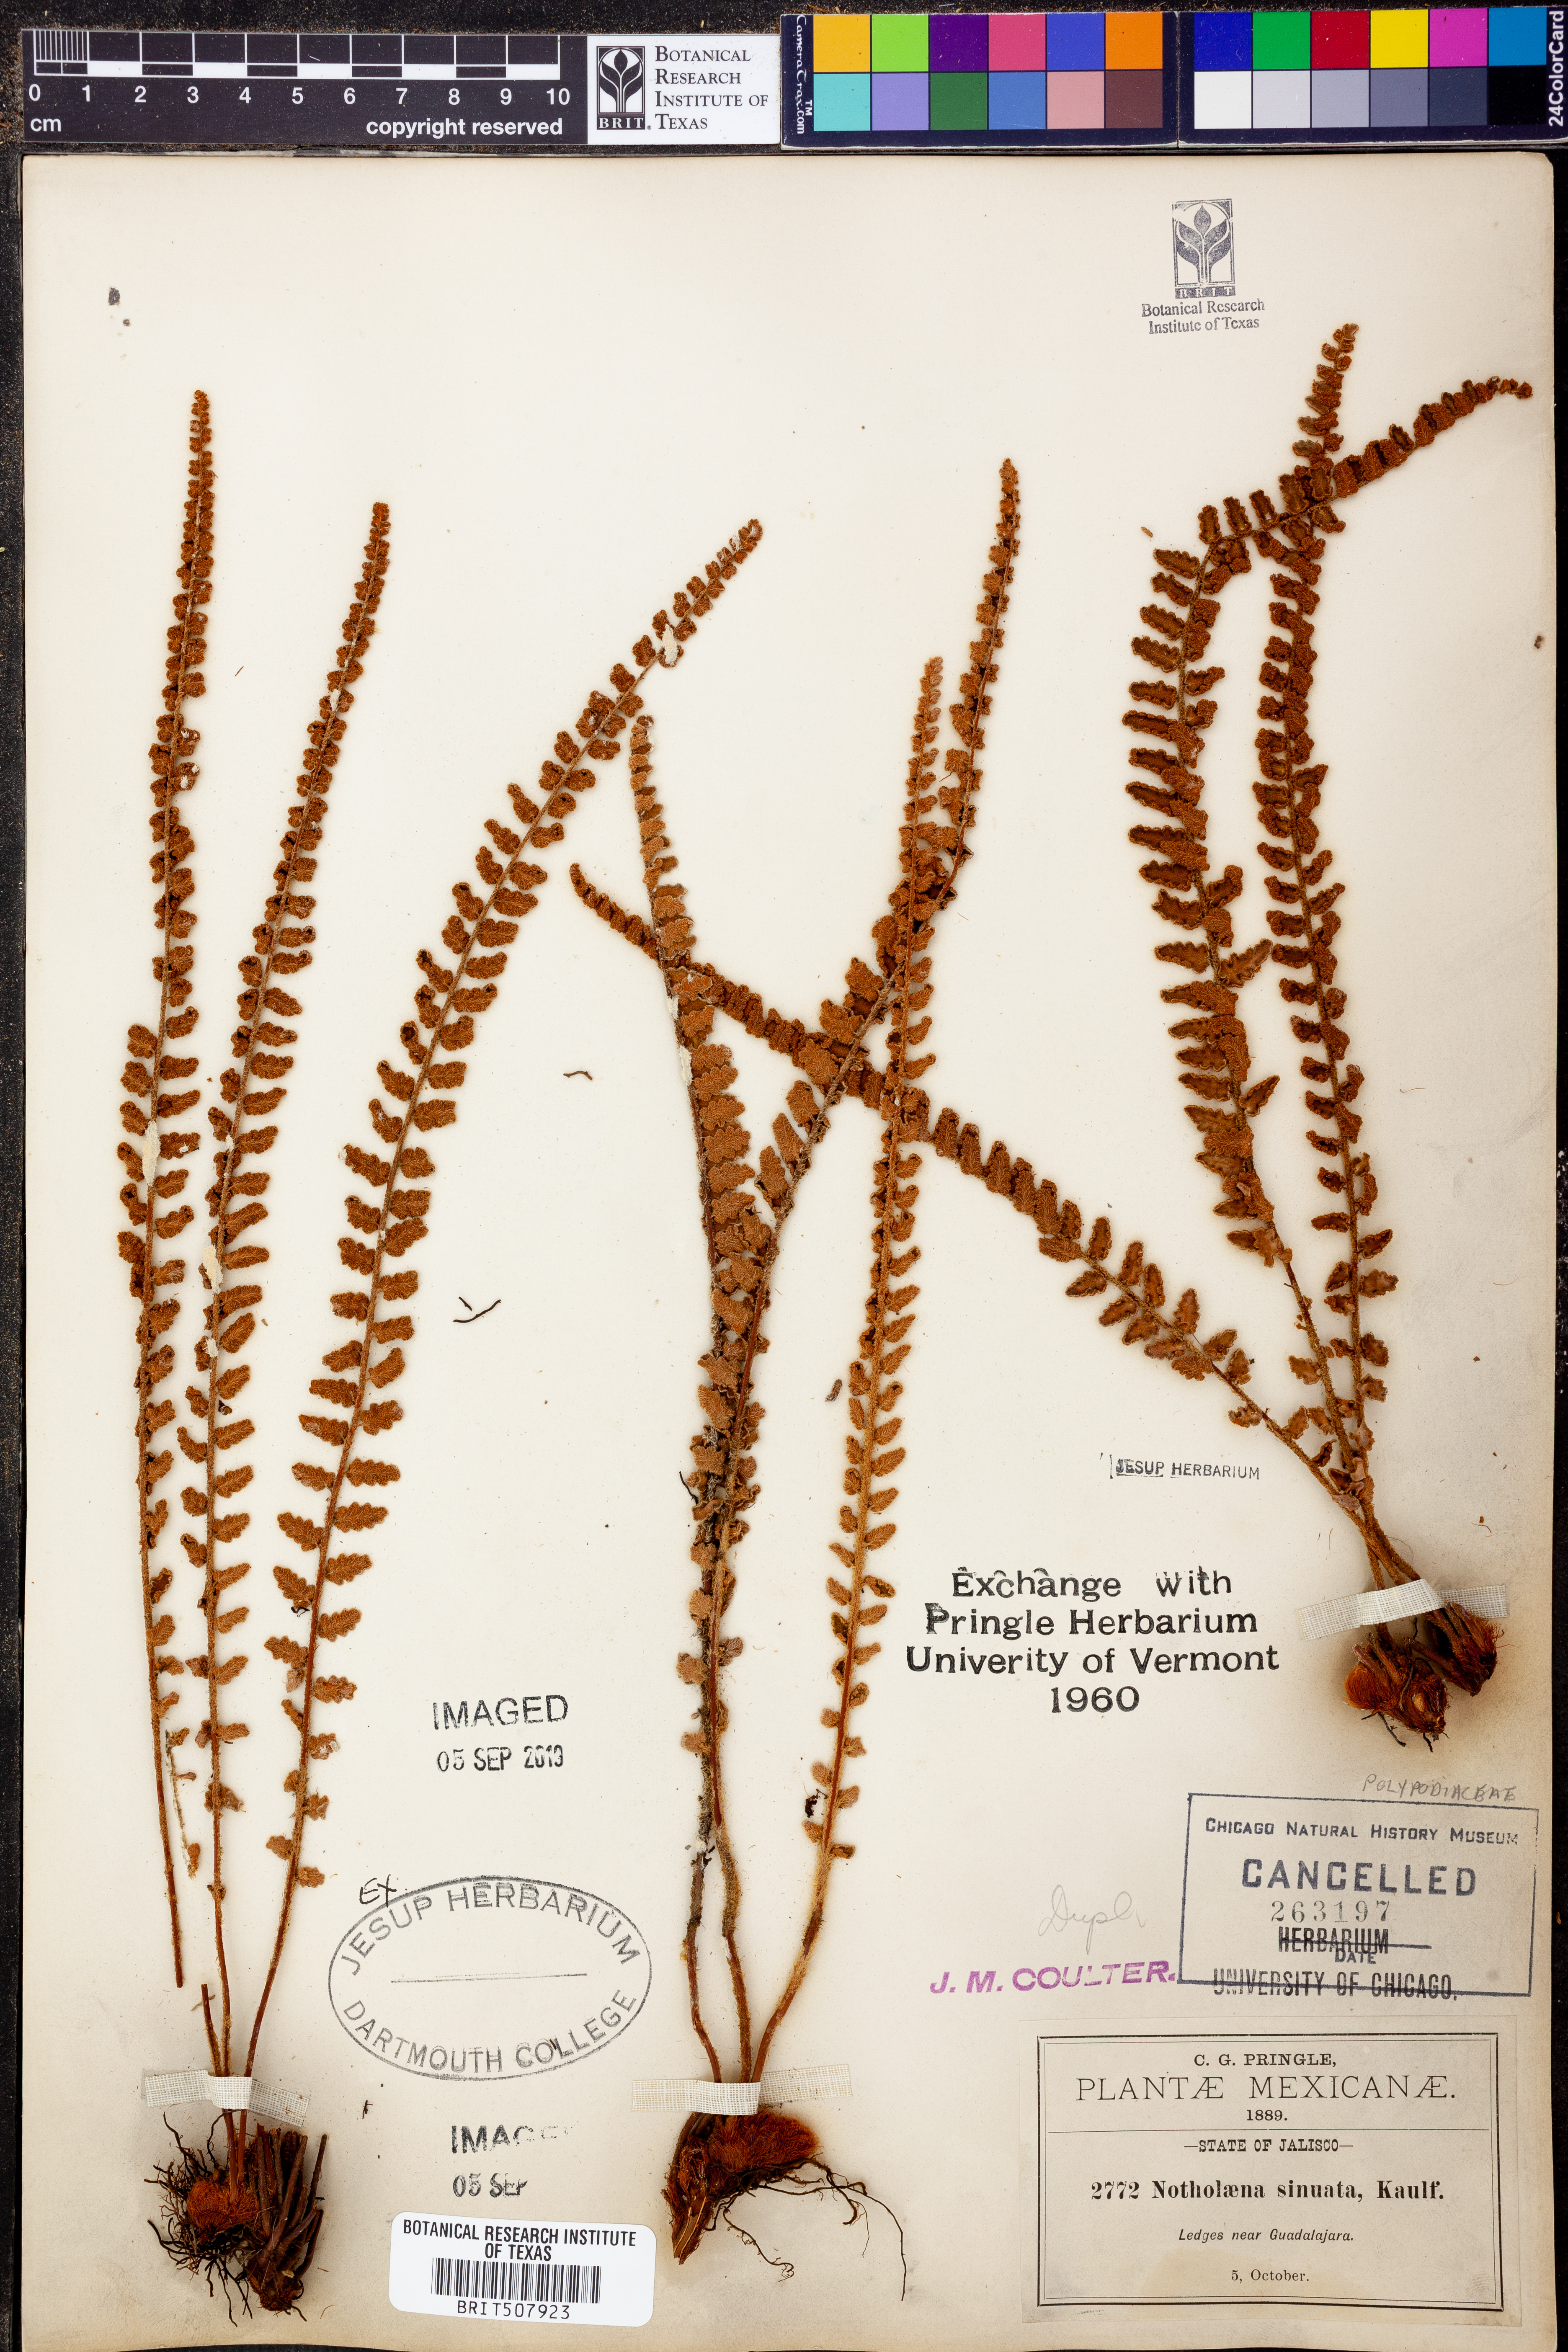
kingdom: Plantae
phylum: Tracheophyta
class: Polypodiopsida
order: Polypodiales
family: Pteridaceae
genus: Astrolepis
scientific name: Astrolepis sinuata
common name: Wavy scaly cloakfern
